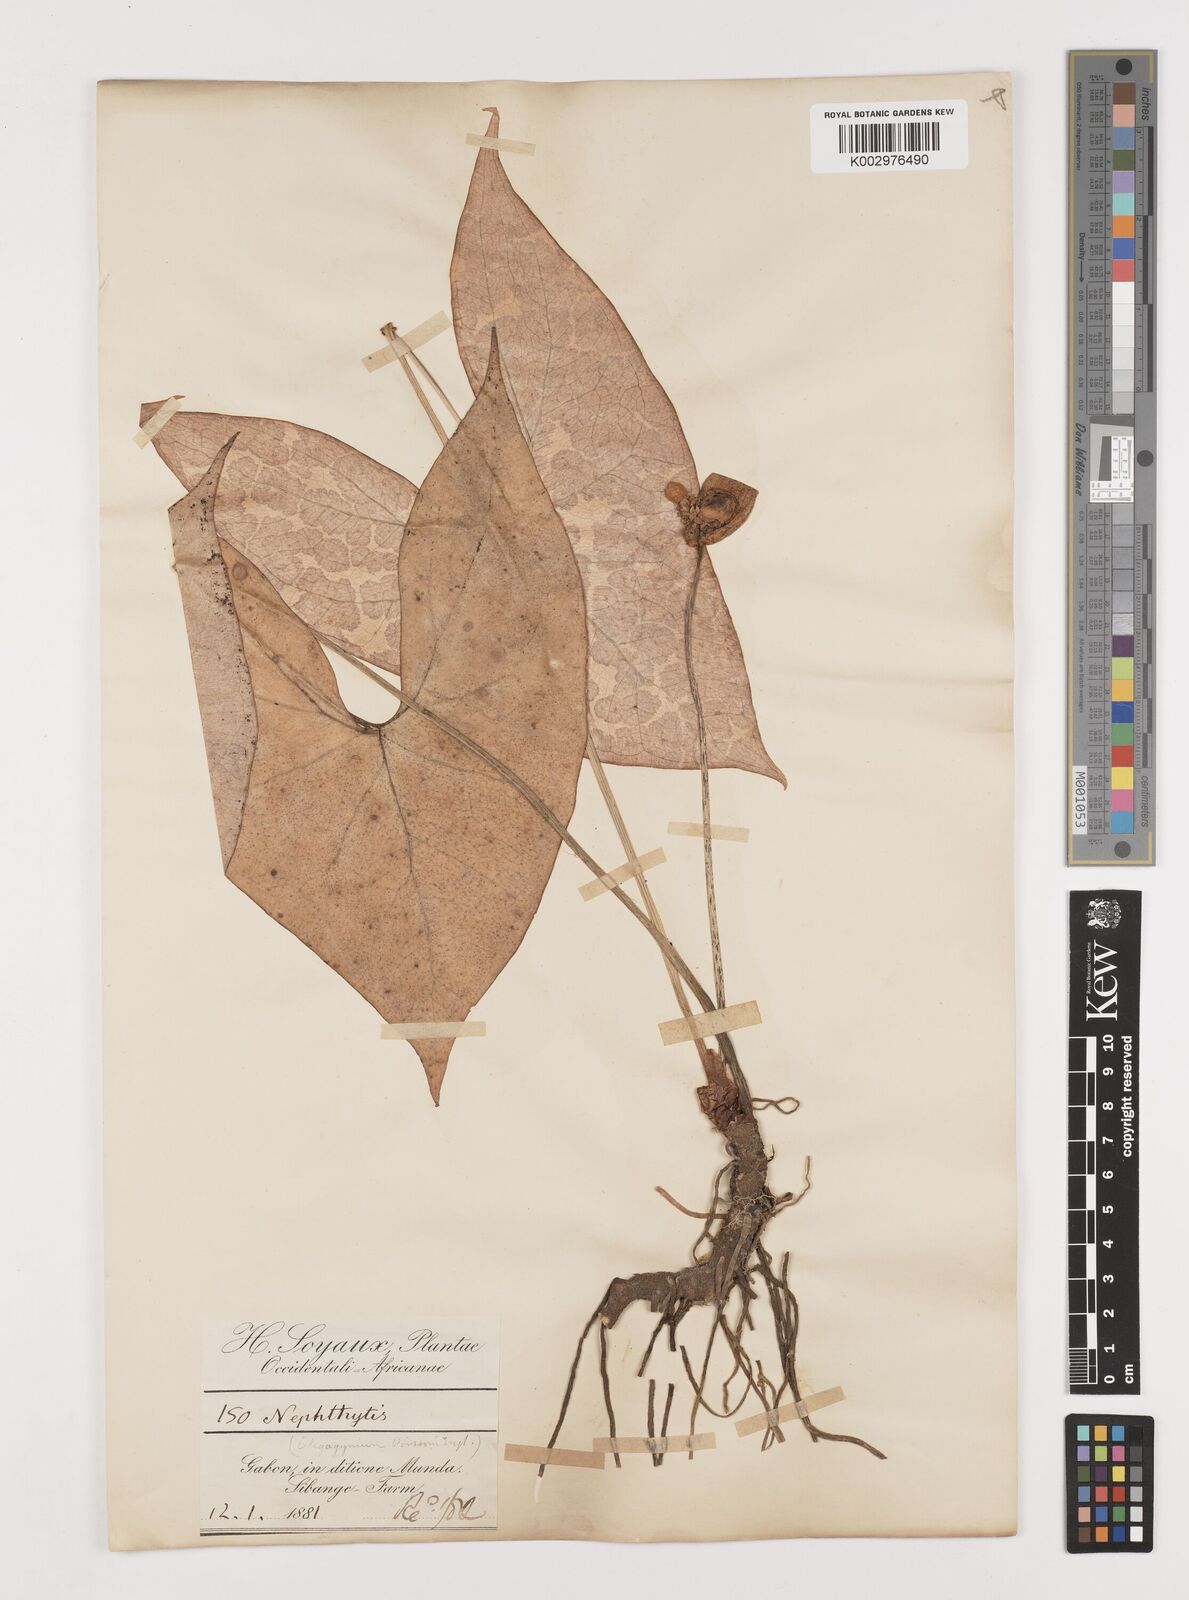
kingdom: Plantae
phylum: Tracheophyta
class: Liliopsida
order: Alismatales
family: Araceae
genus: Nephthytis
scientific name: Nephthytis
